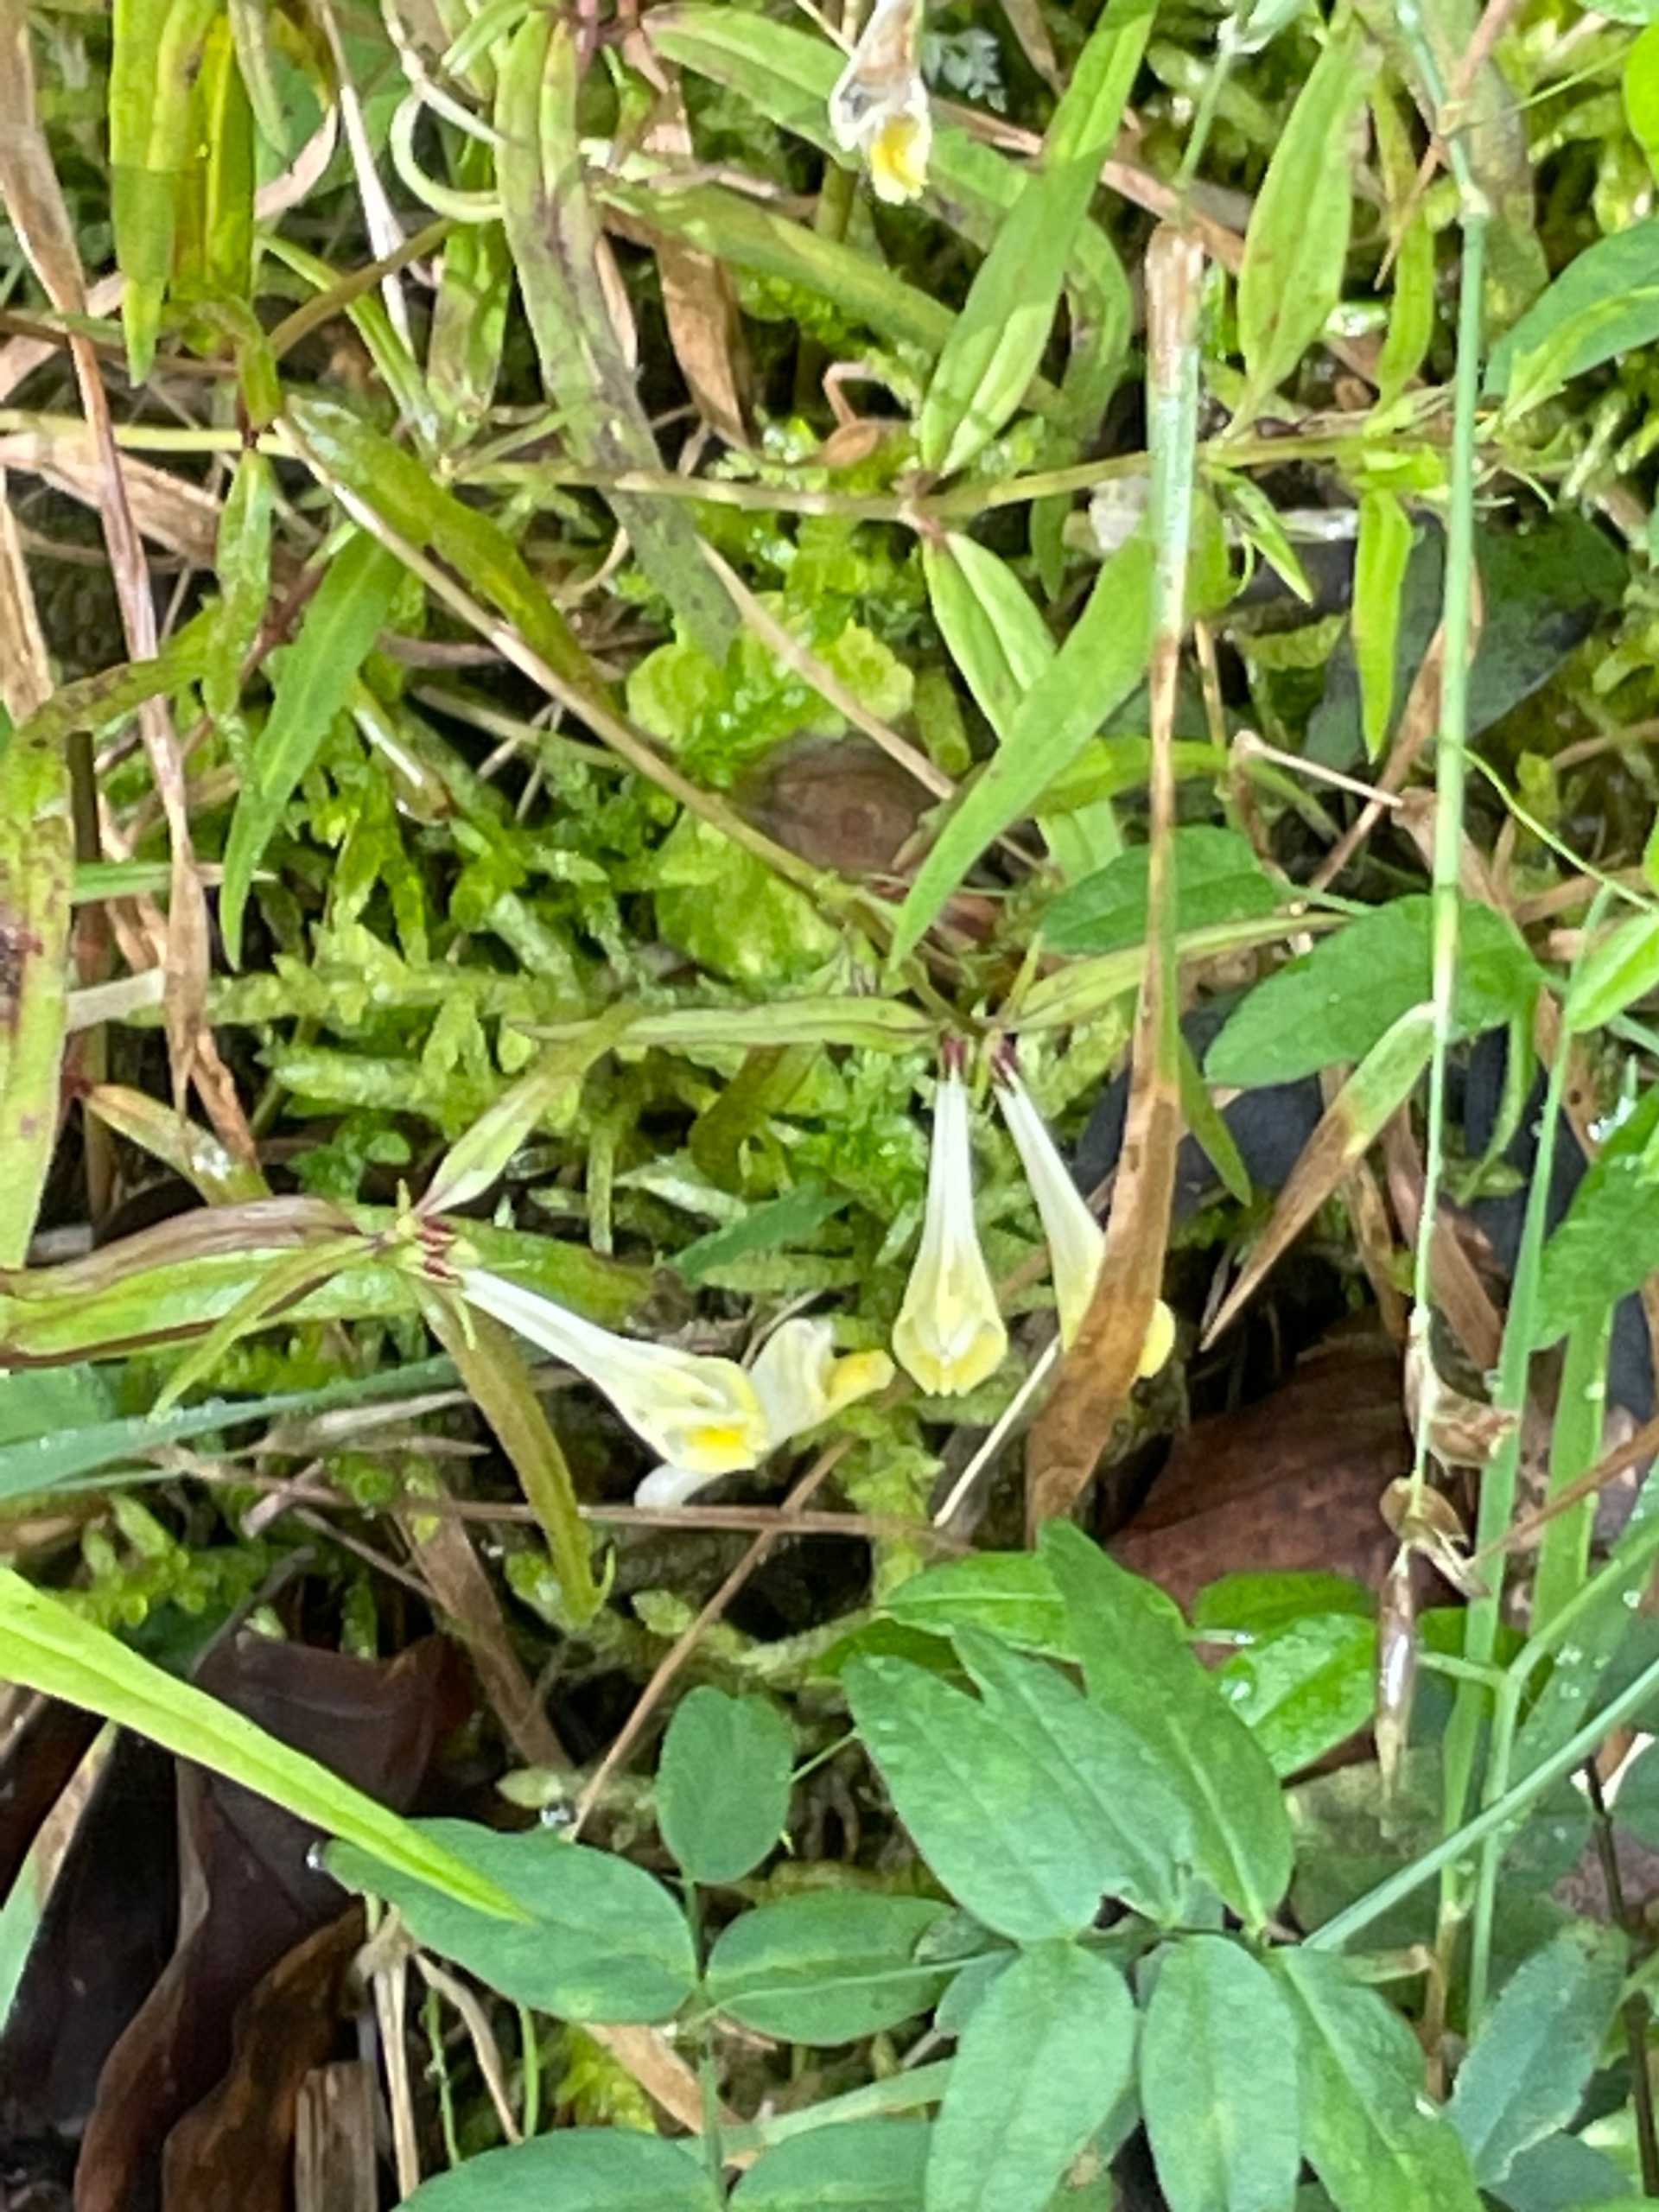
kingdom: Plantae
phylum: Tracheophyta
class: Magnoliopsida
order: Lamiales
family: Orobanchaceae
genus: Melampyrum
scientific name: Melampyrum pratense
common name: Almindelig kohvede
